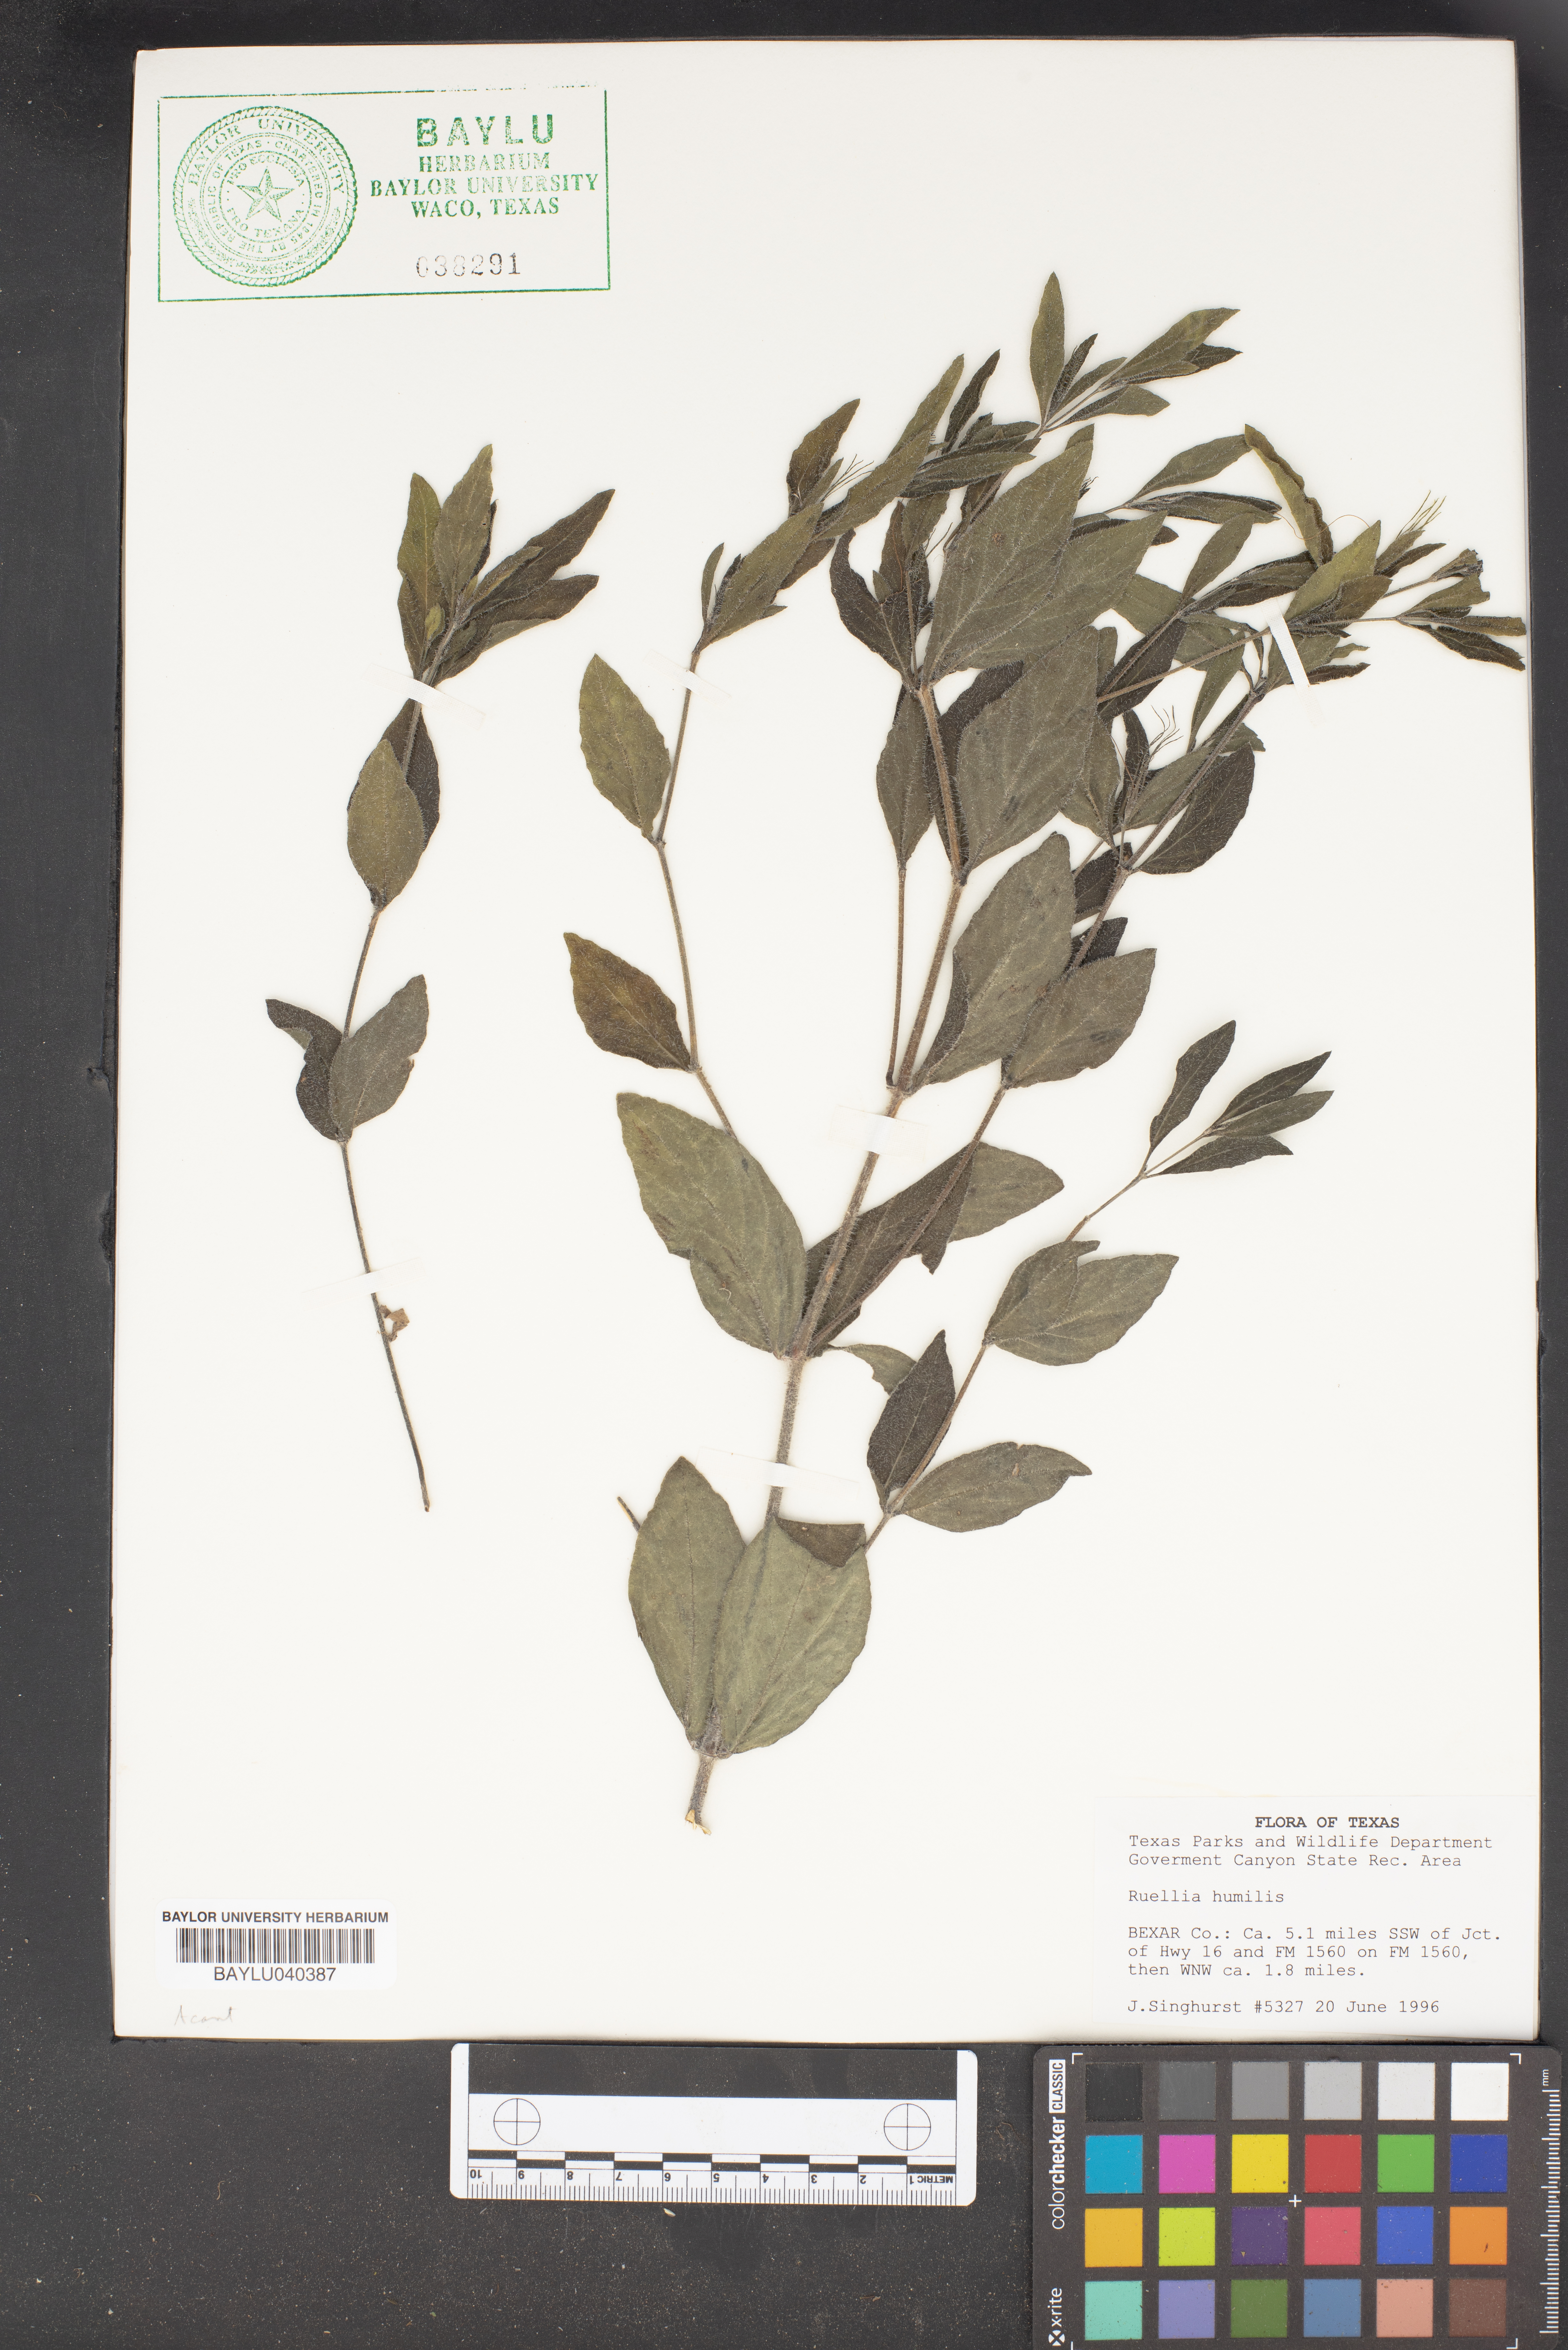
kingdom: Plantae
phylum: Tracheophyta
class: Magnoliopsida
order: Lamiales
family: Acanthaceae
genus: Ruellia
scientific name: Ruellia humilis
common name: Fringe-leaf ruellia
